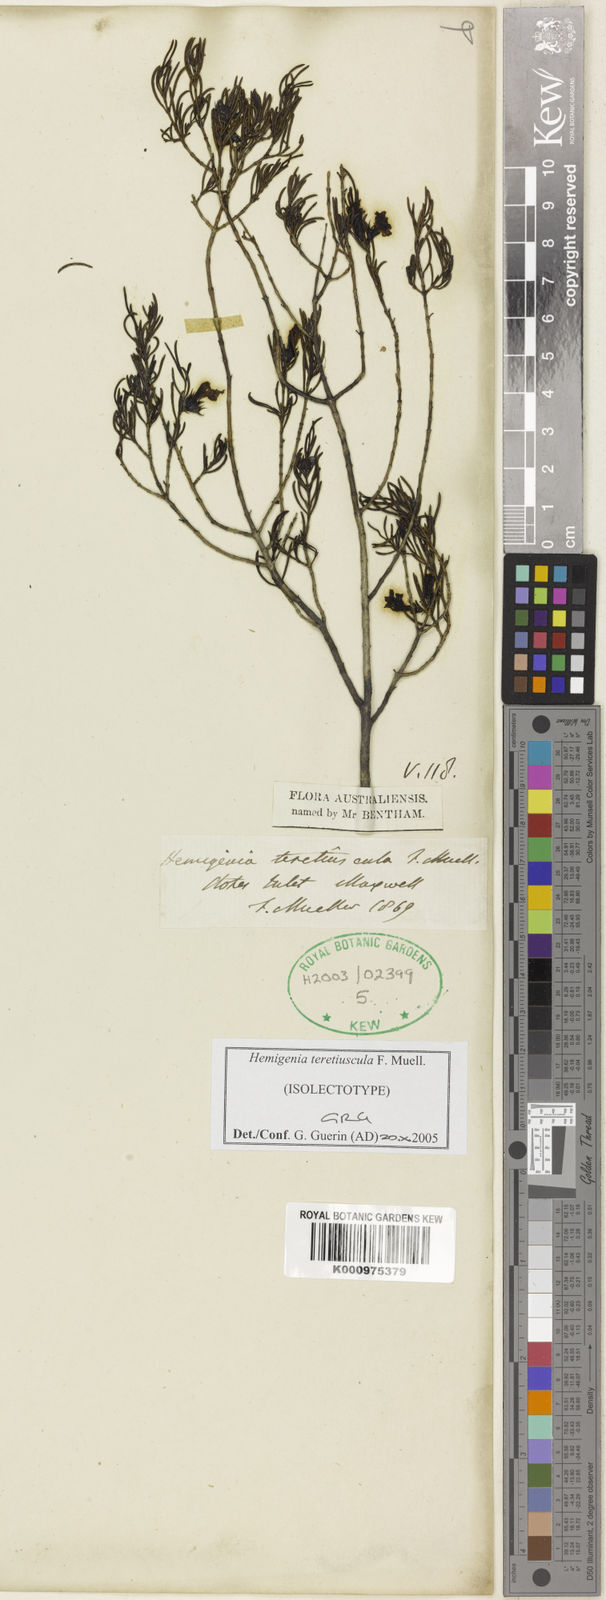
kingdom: Plantae
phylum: Tracheophyta
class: Magnoliopsida
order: Lamiales
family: Lamiaceae
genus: Hemigenia
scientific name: Hemigenia teretiuscula
